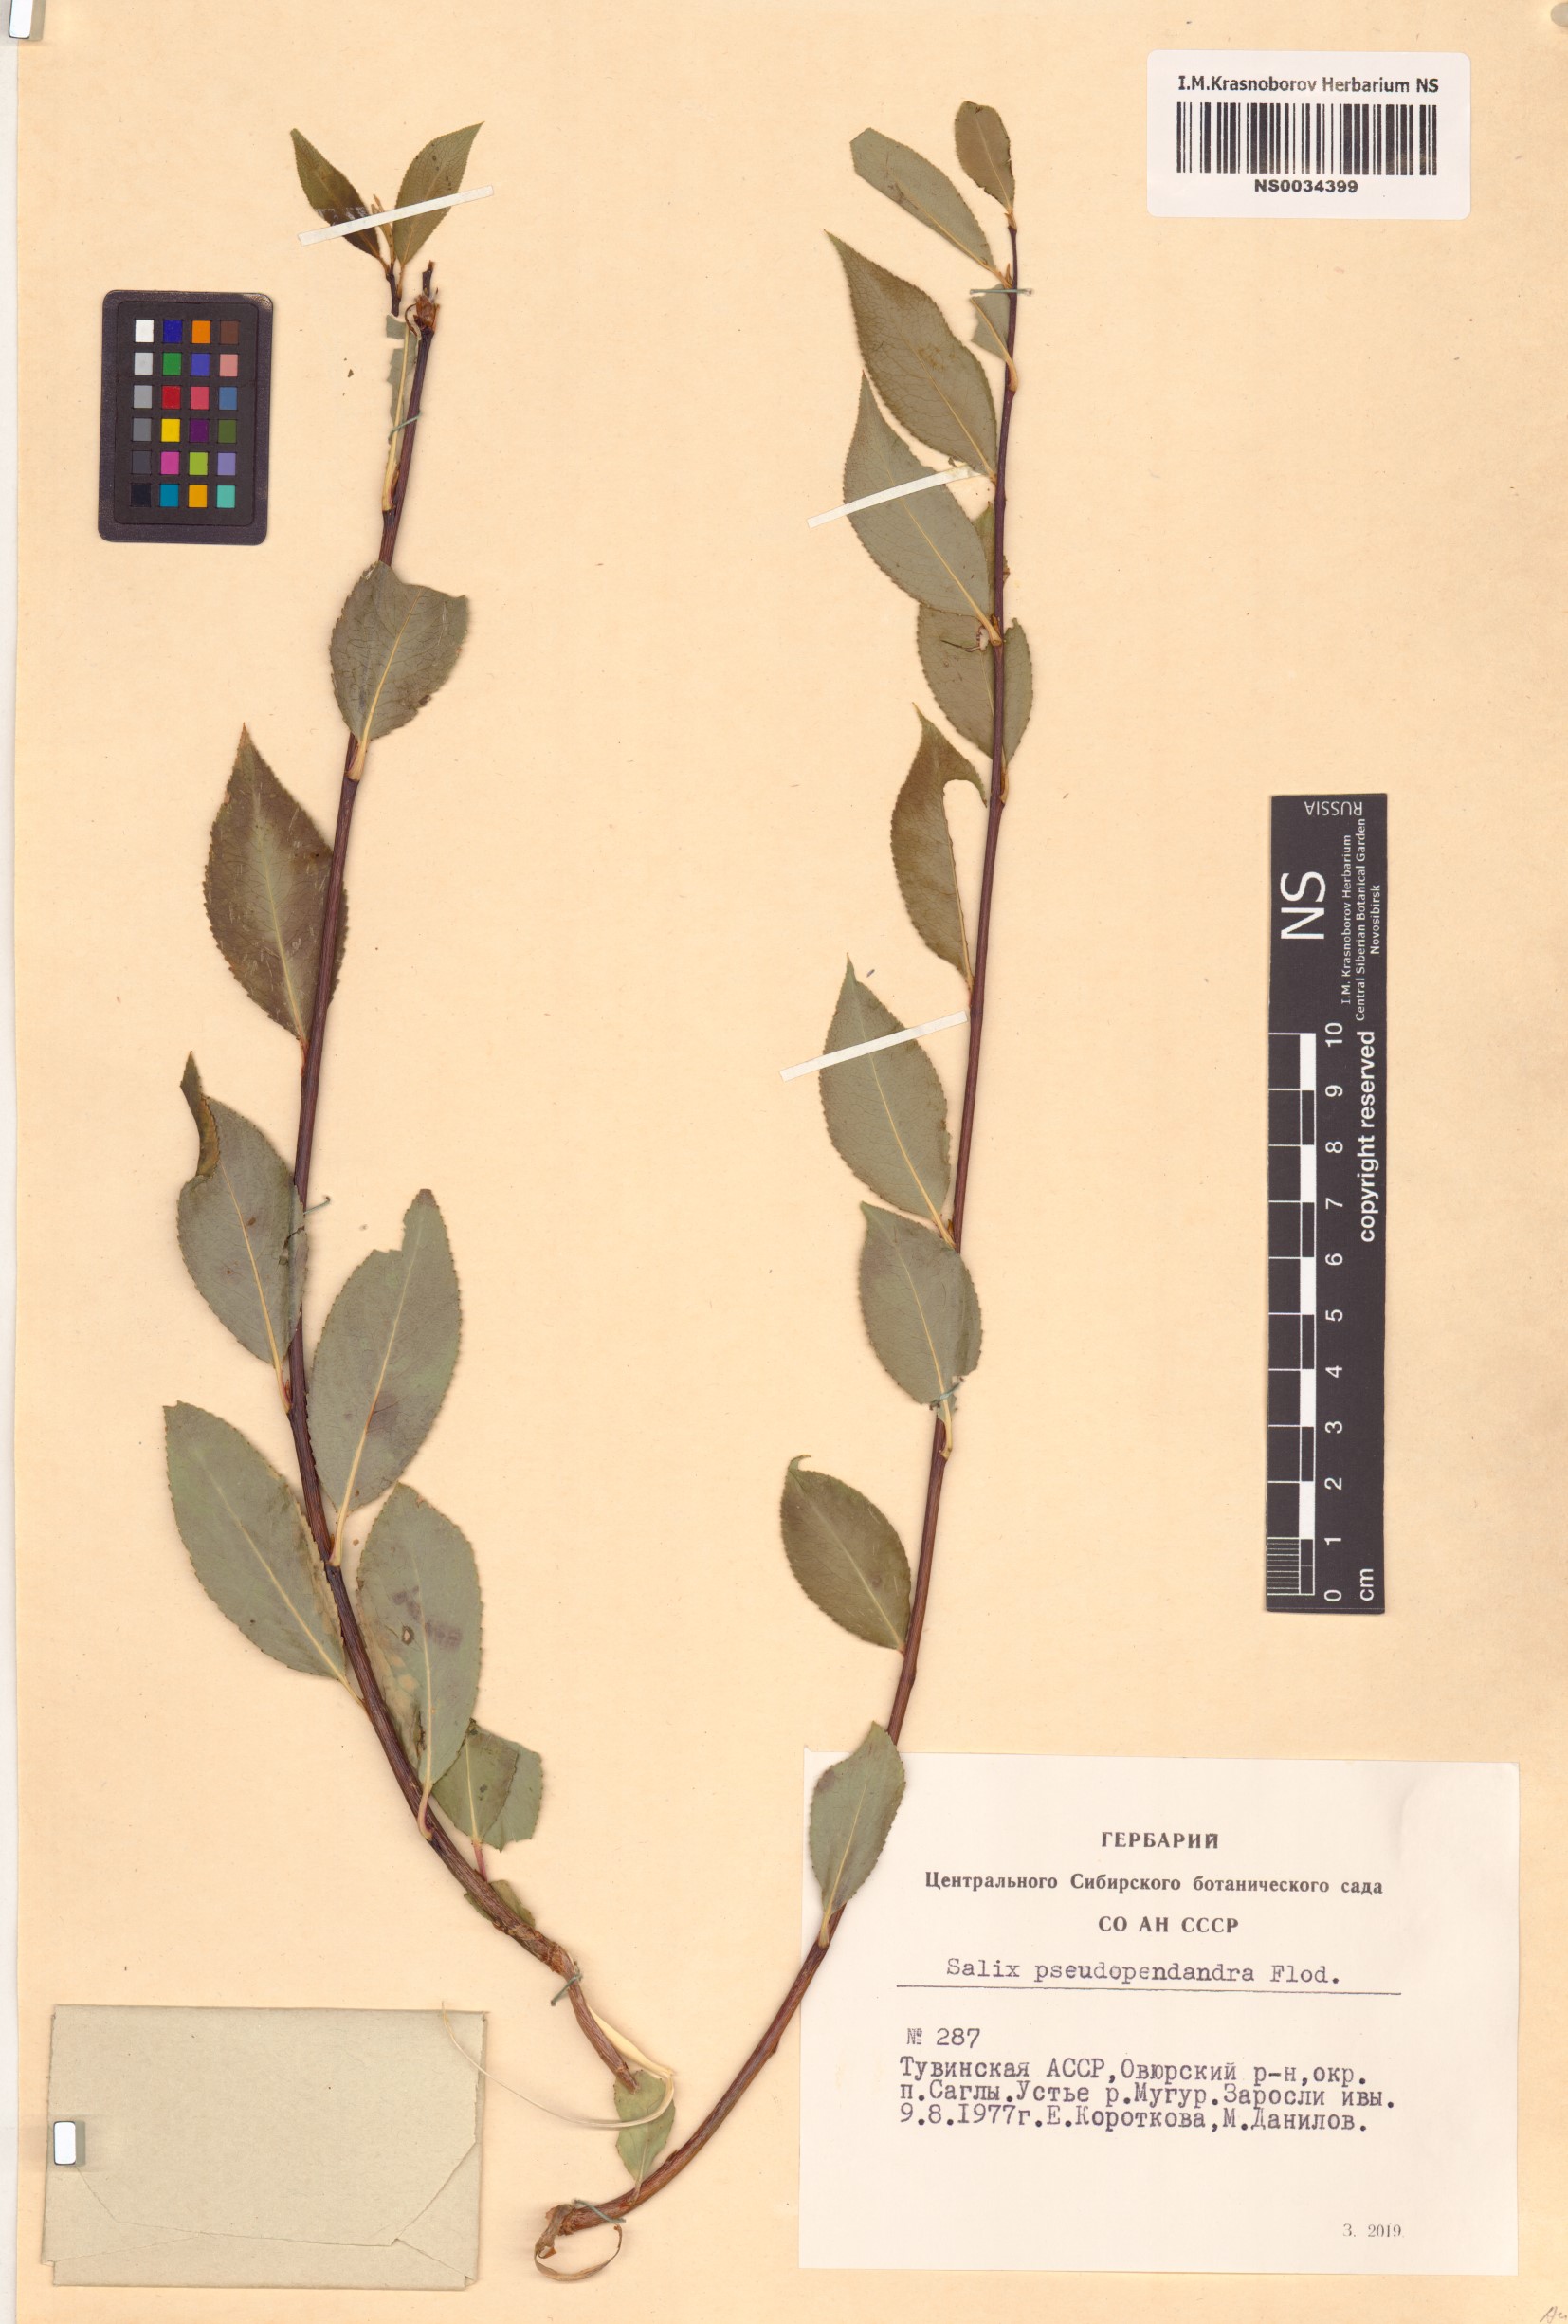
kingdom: Plantae
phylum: Tracheophyta
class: Magnoliopsida
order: Malpighiales
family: Salicaceae
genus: Salix
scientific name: Salix pseudopentandra
